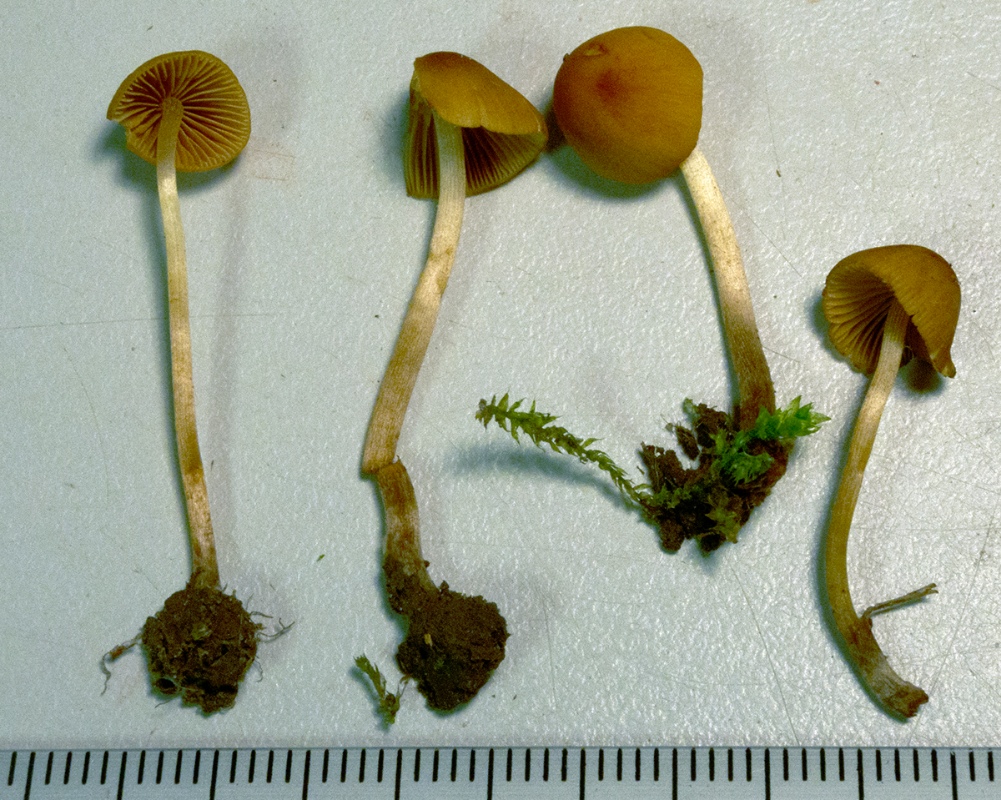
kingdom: Fungi
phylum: Basidiomycota
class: Agaricomycetes
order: Agaricales
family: Bolbitiaceae
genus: Conocybe
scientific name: Conocybe mesospora
